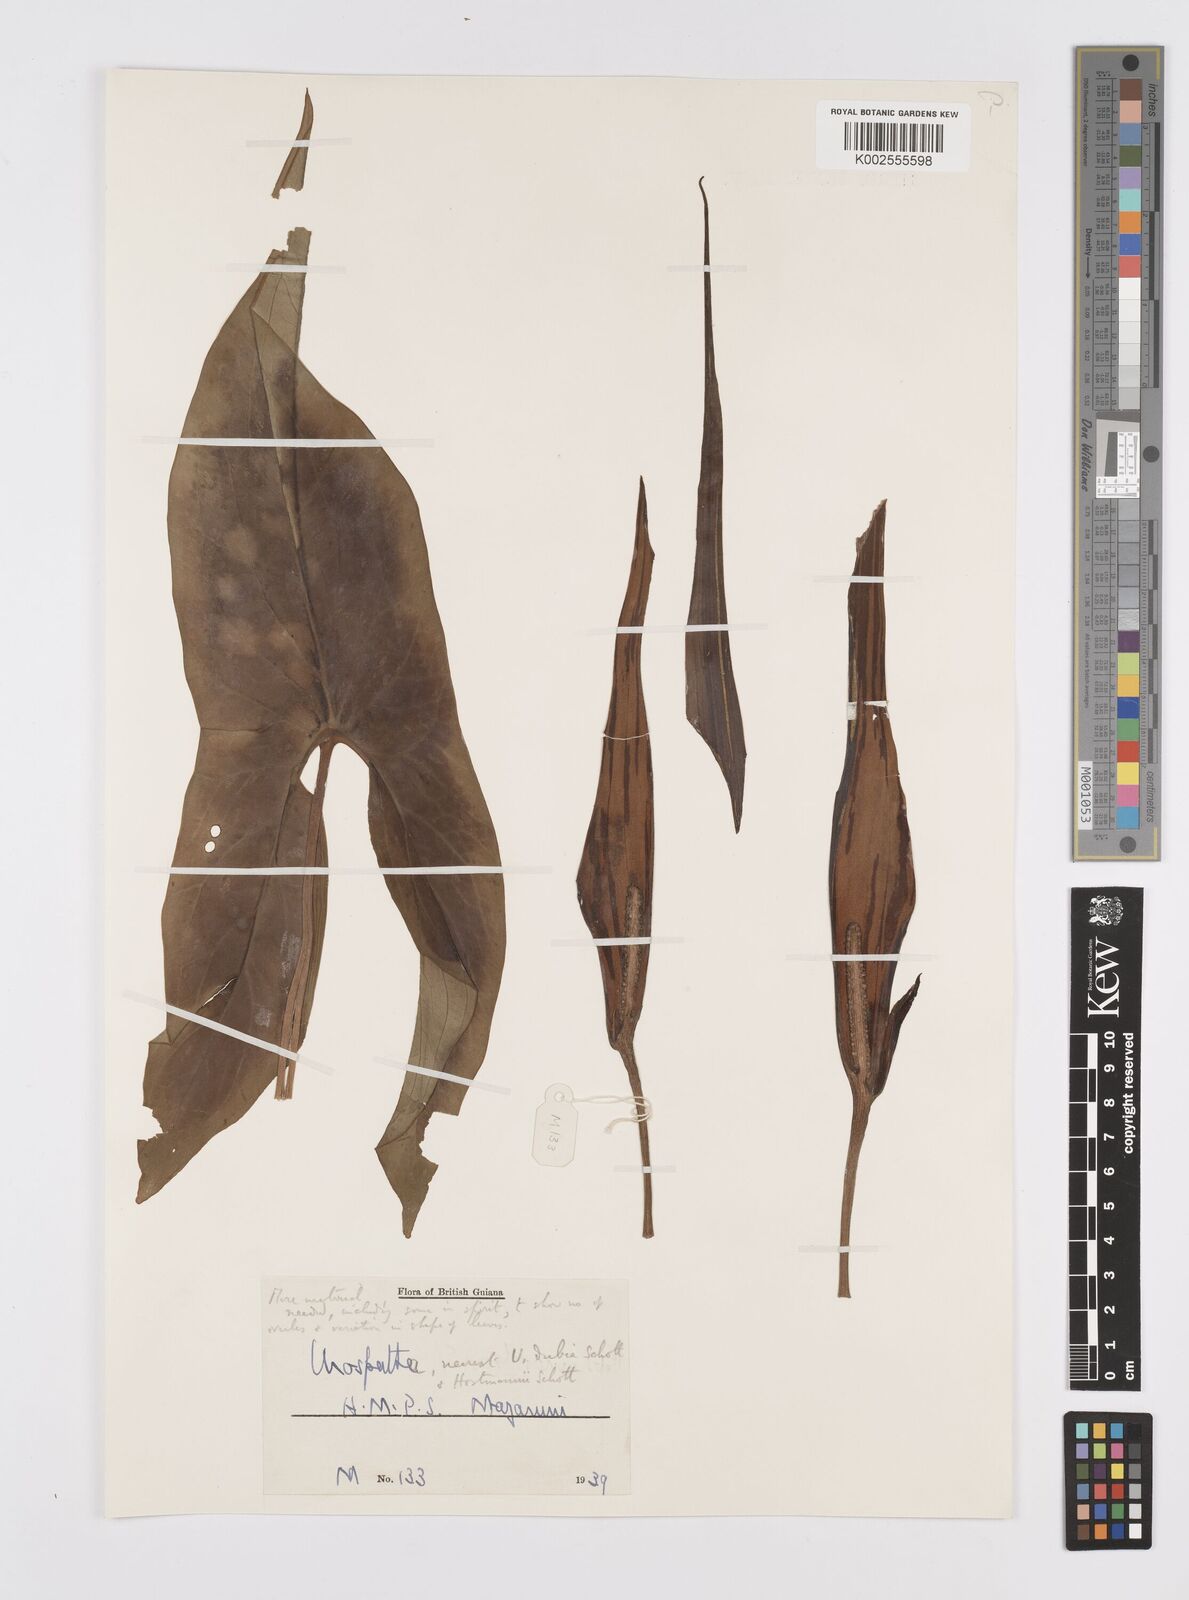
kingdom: Plantae
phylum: Tracheophyta
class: Liliopsida
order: Alismatales
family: Araceae
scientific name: Araceae
